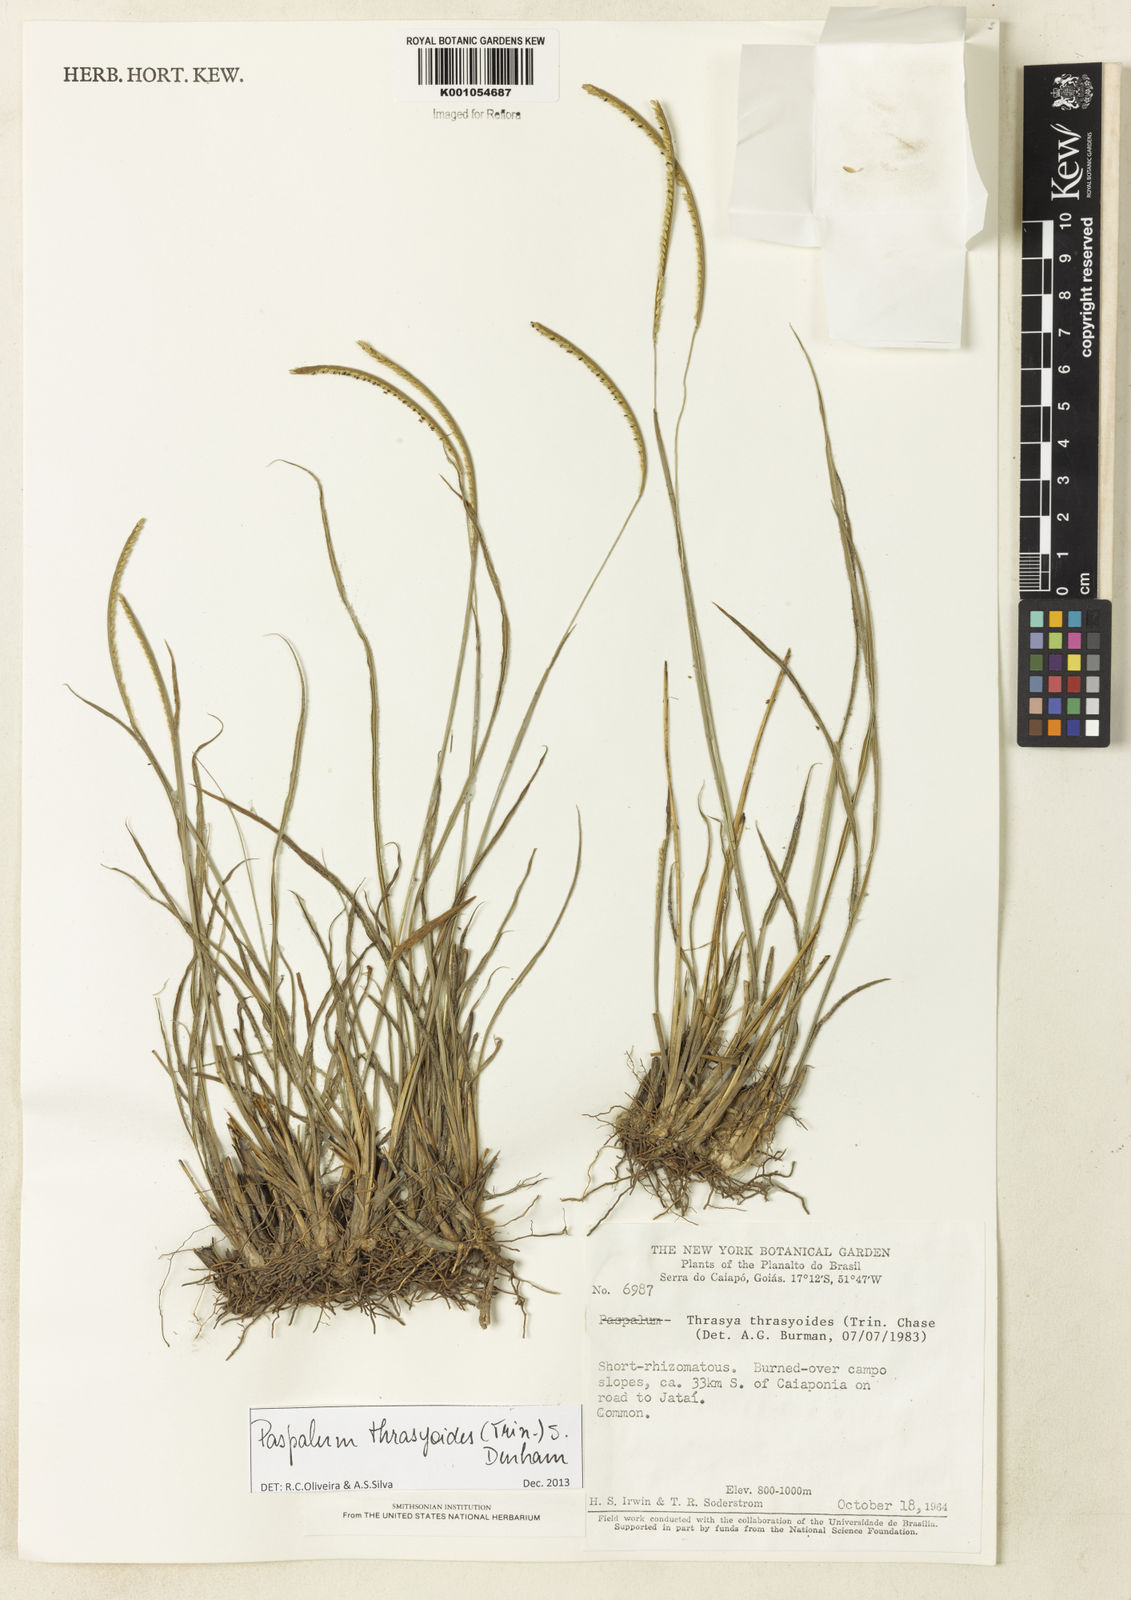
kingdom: Plantae
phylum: Tracheophyta
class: Liliopsida
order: Poales
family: Poaceae
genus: Paspalum
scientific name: Paspalum thrasyoides
